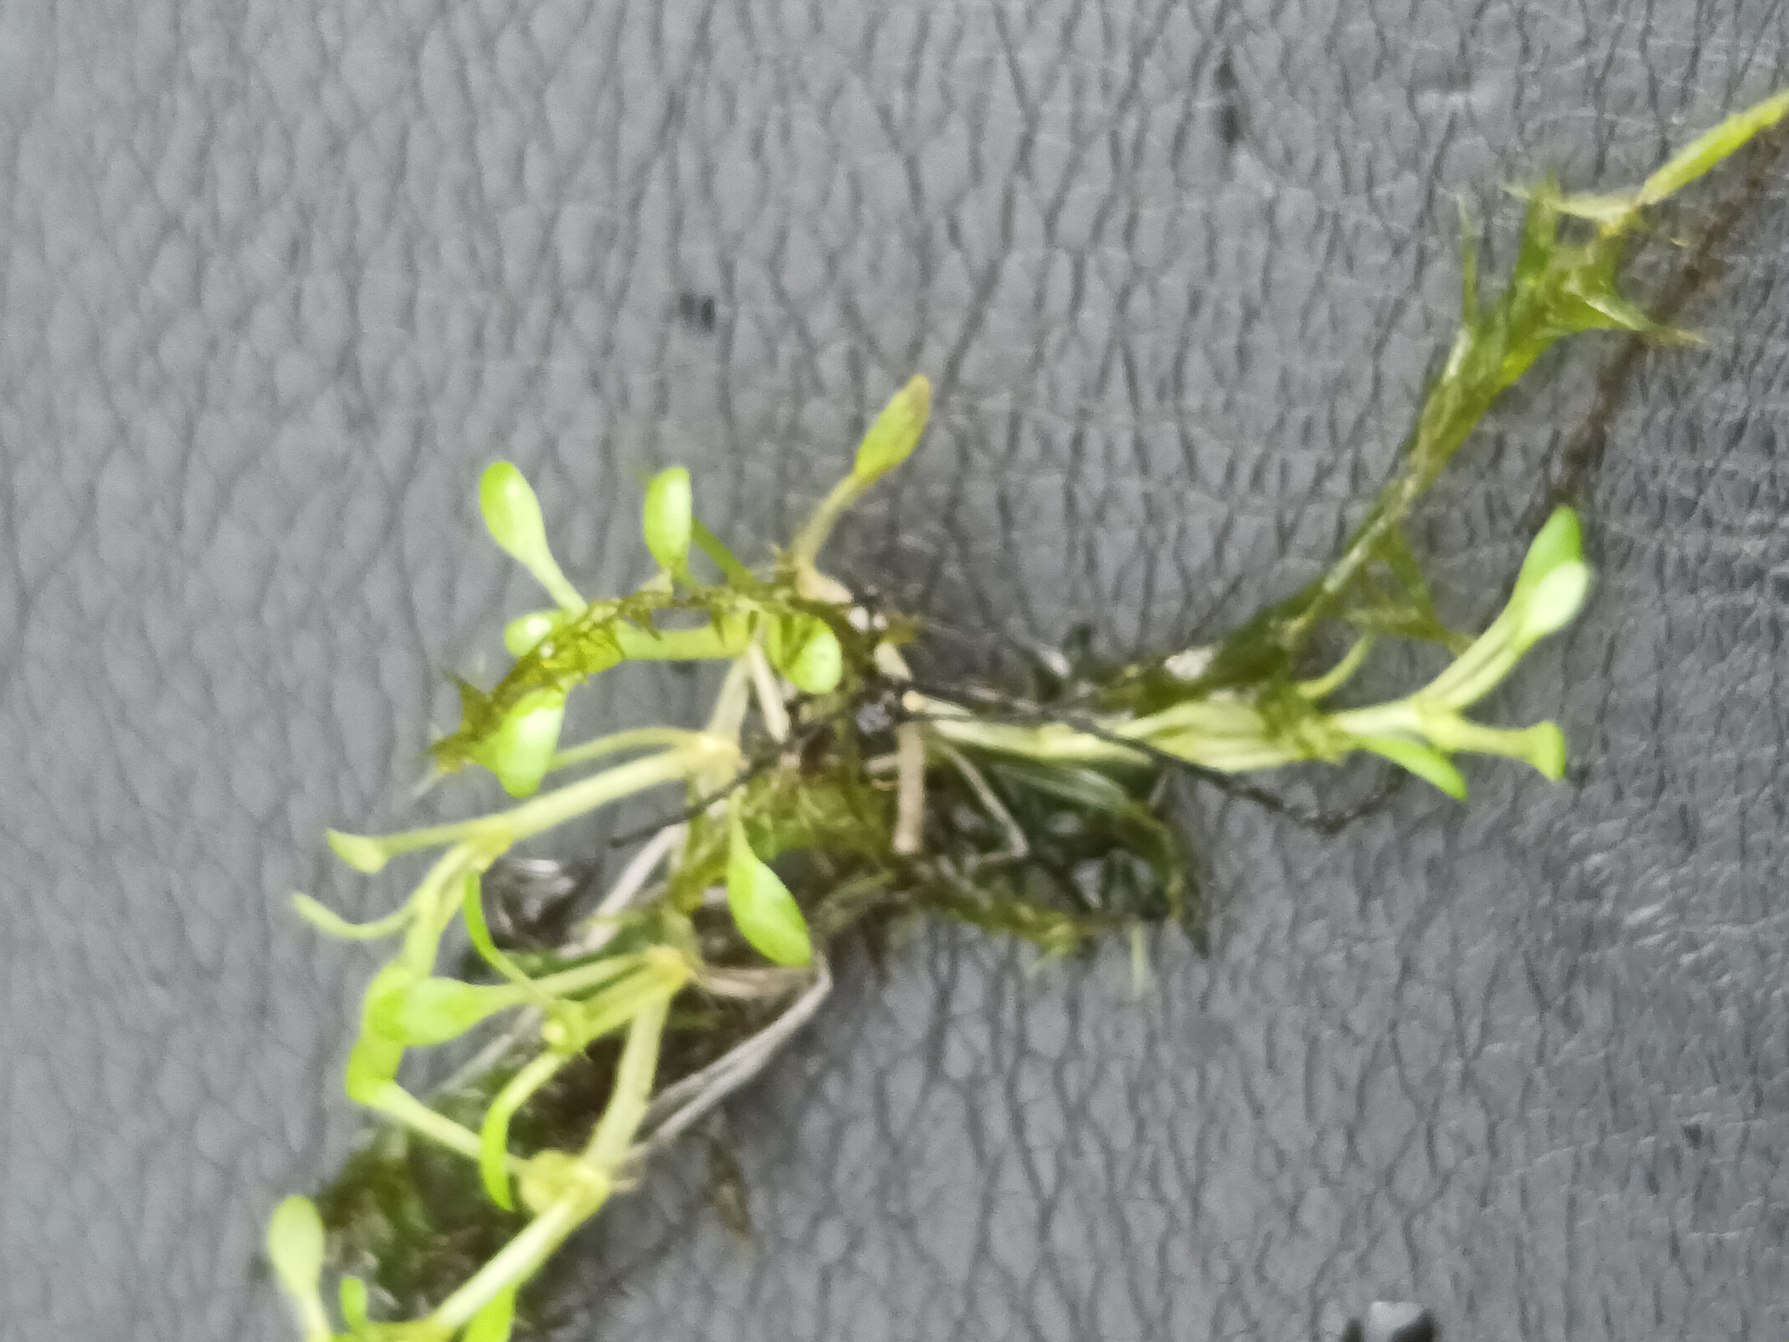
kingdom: Plantae
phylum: Tracheophyta
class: Magnoliopsida
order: Malpighiales
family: Elatinaceae
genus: Elatine
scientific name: Elatine hydropiper
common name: Vandpeber-bækarve
